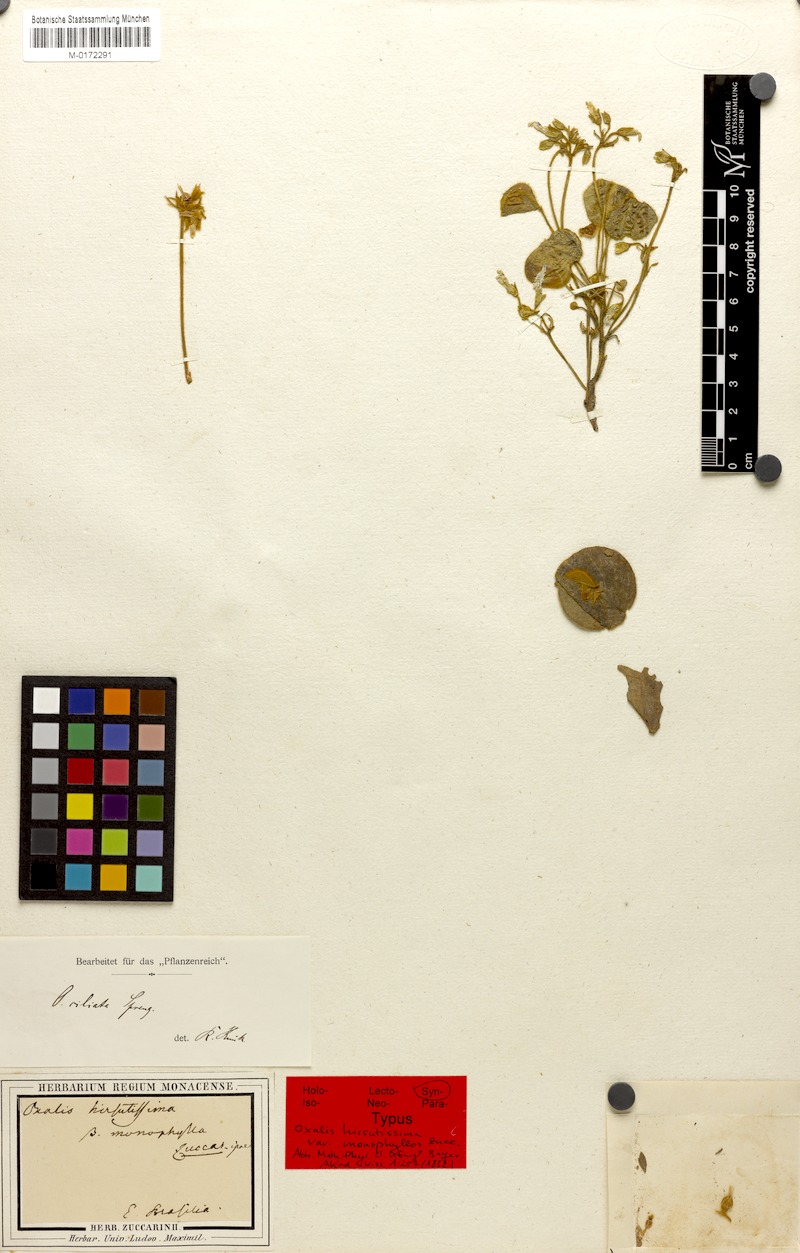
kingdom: Plantae
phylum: Tracheophyta
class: Magnoliopsida
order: Oxalidales
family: Oxalidaceae
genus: Oxalis
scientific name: Oxalis ciliata
